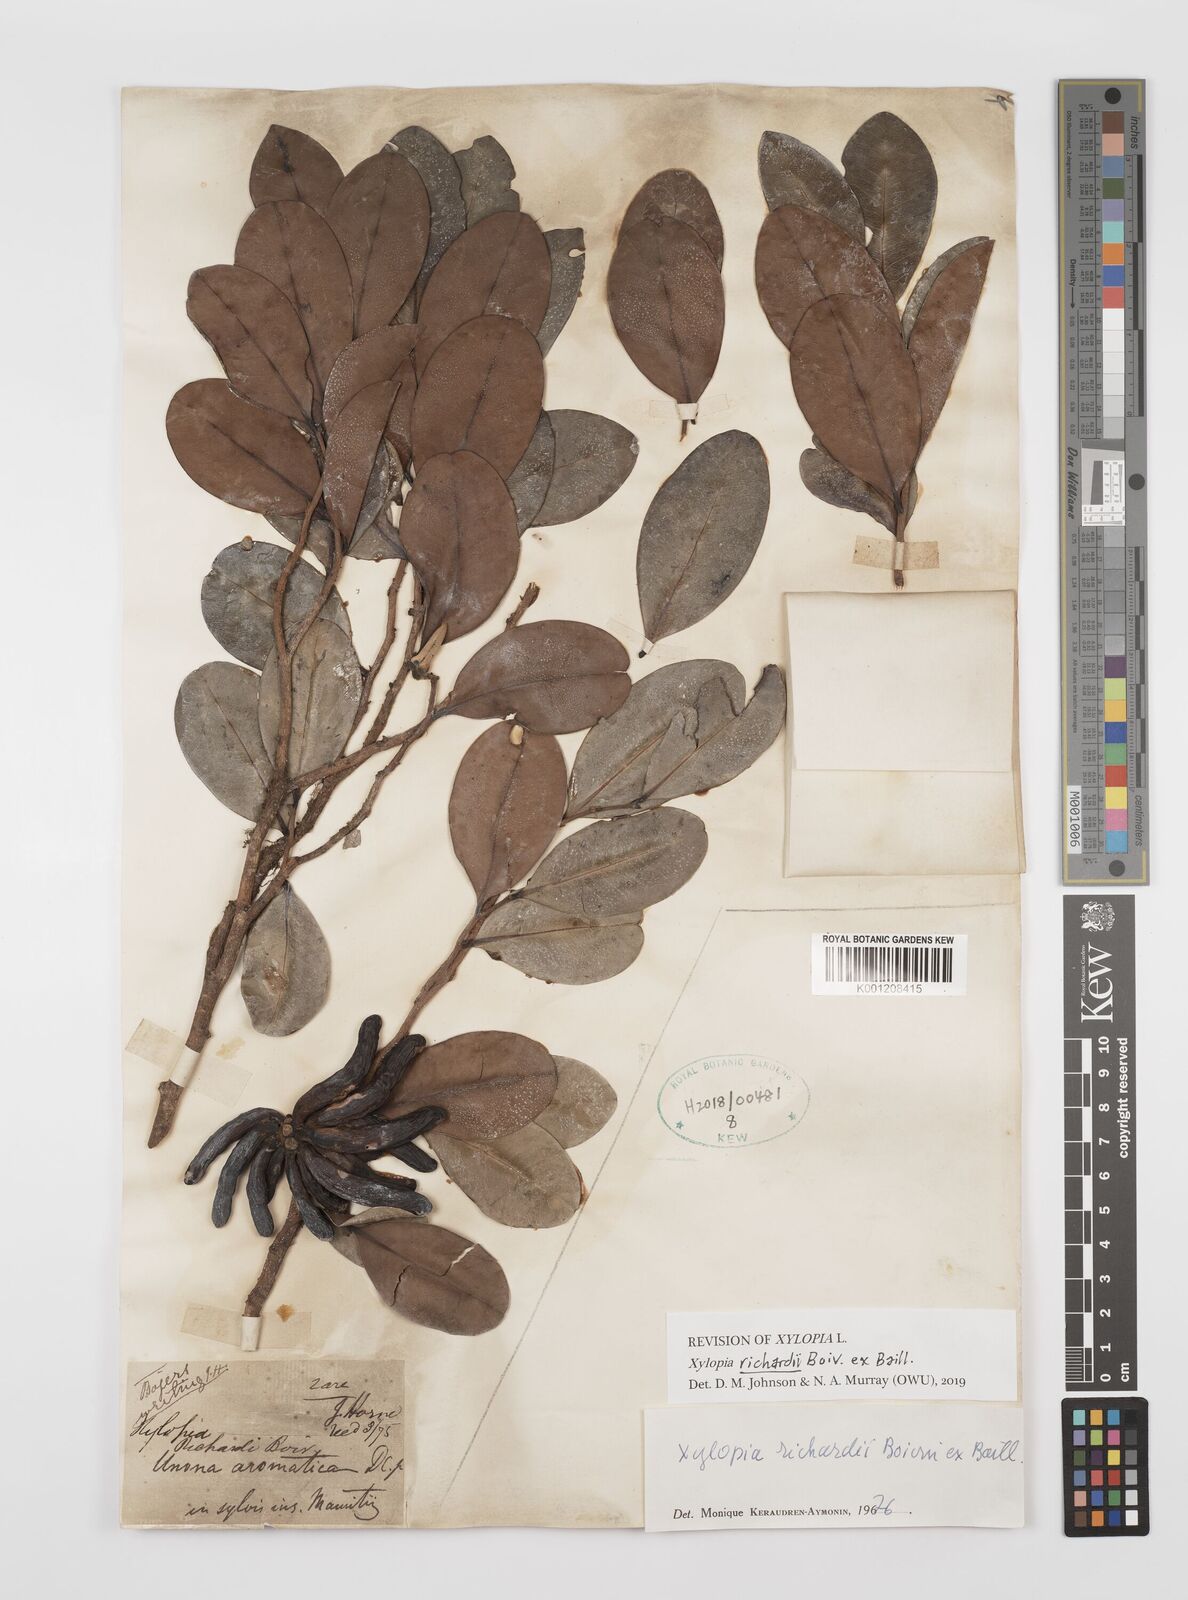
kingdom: Plantae
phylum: Tracheophyta
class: Magnoliopsida
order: Magnoliales
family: Annonaceae
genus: Xylopia
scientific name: Xylopia richardii
